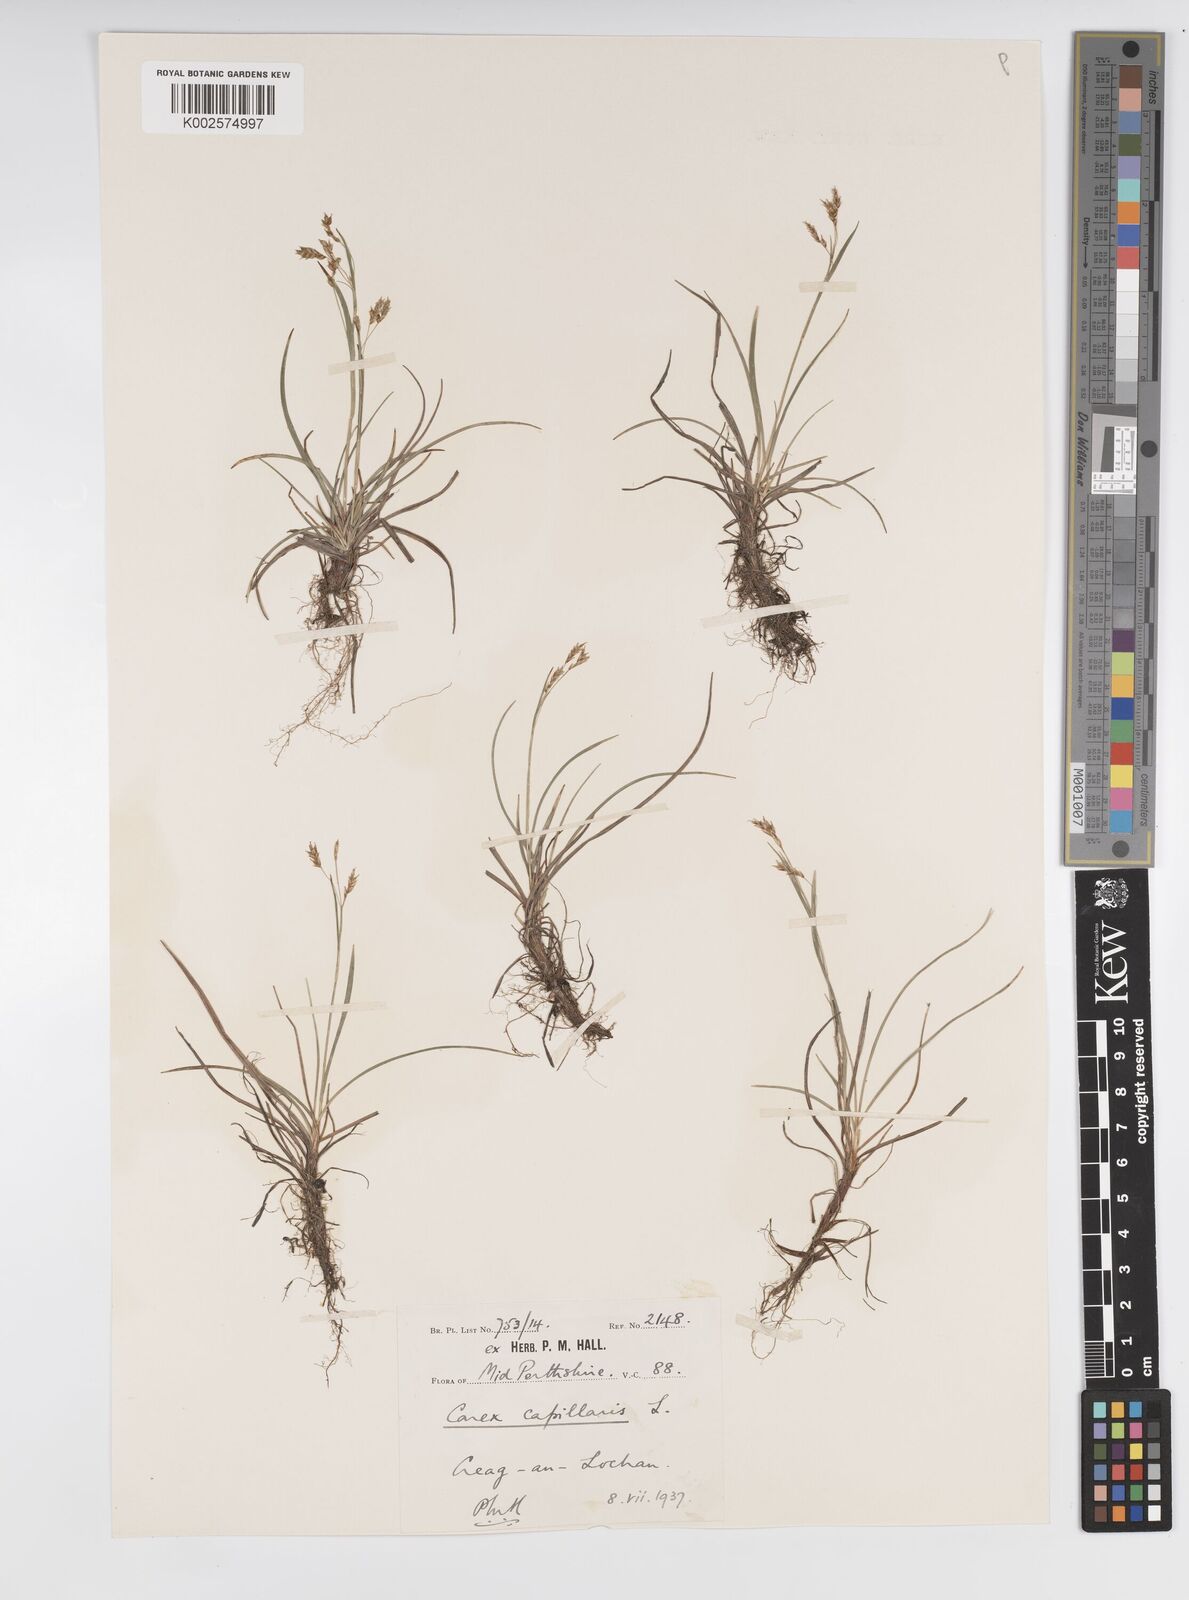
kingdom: Plantae
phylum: Tracheophyta
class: Liliopsida
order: Poales
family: Cyperaceae
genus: Carex
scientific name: Carex capillaris
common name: Hair sedge
